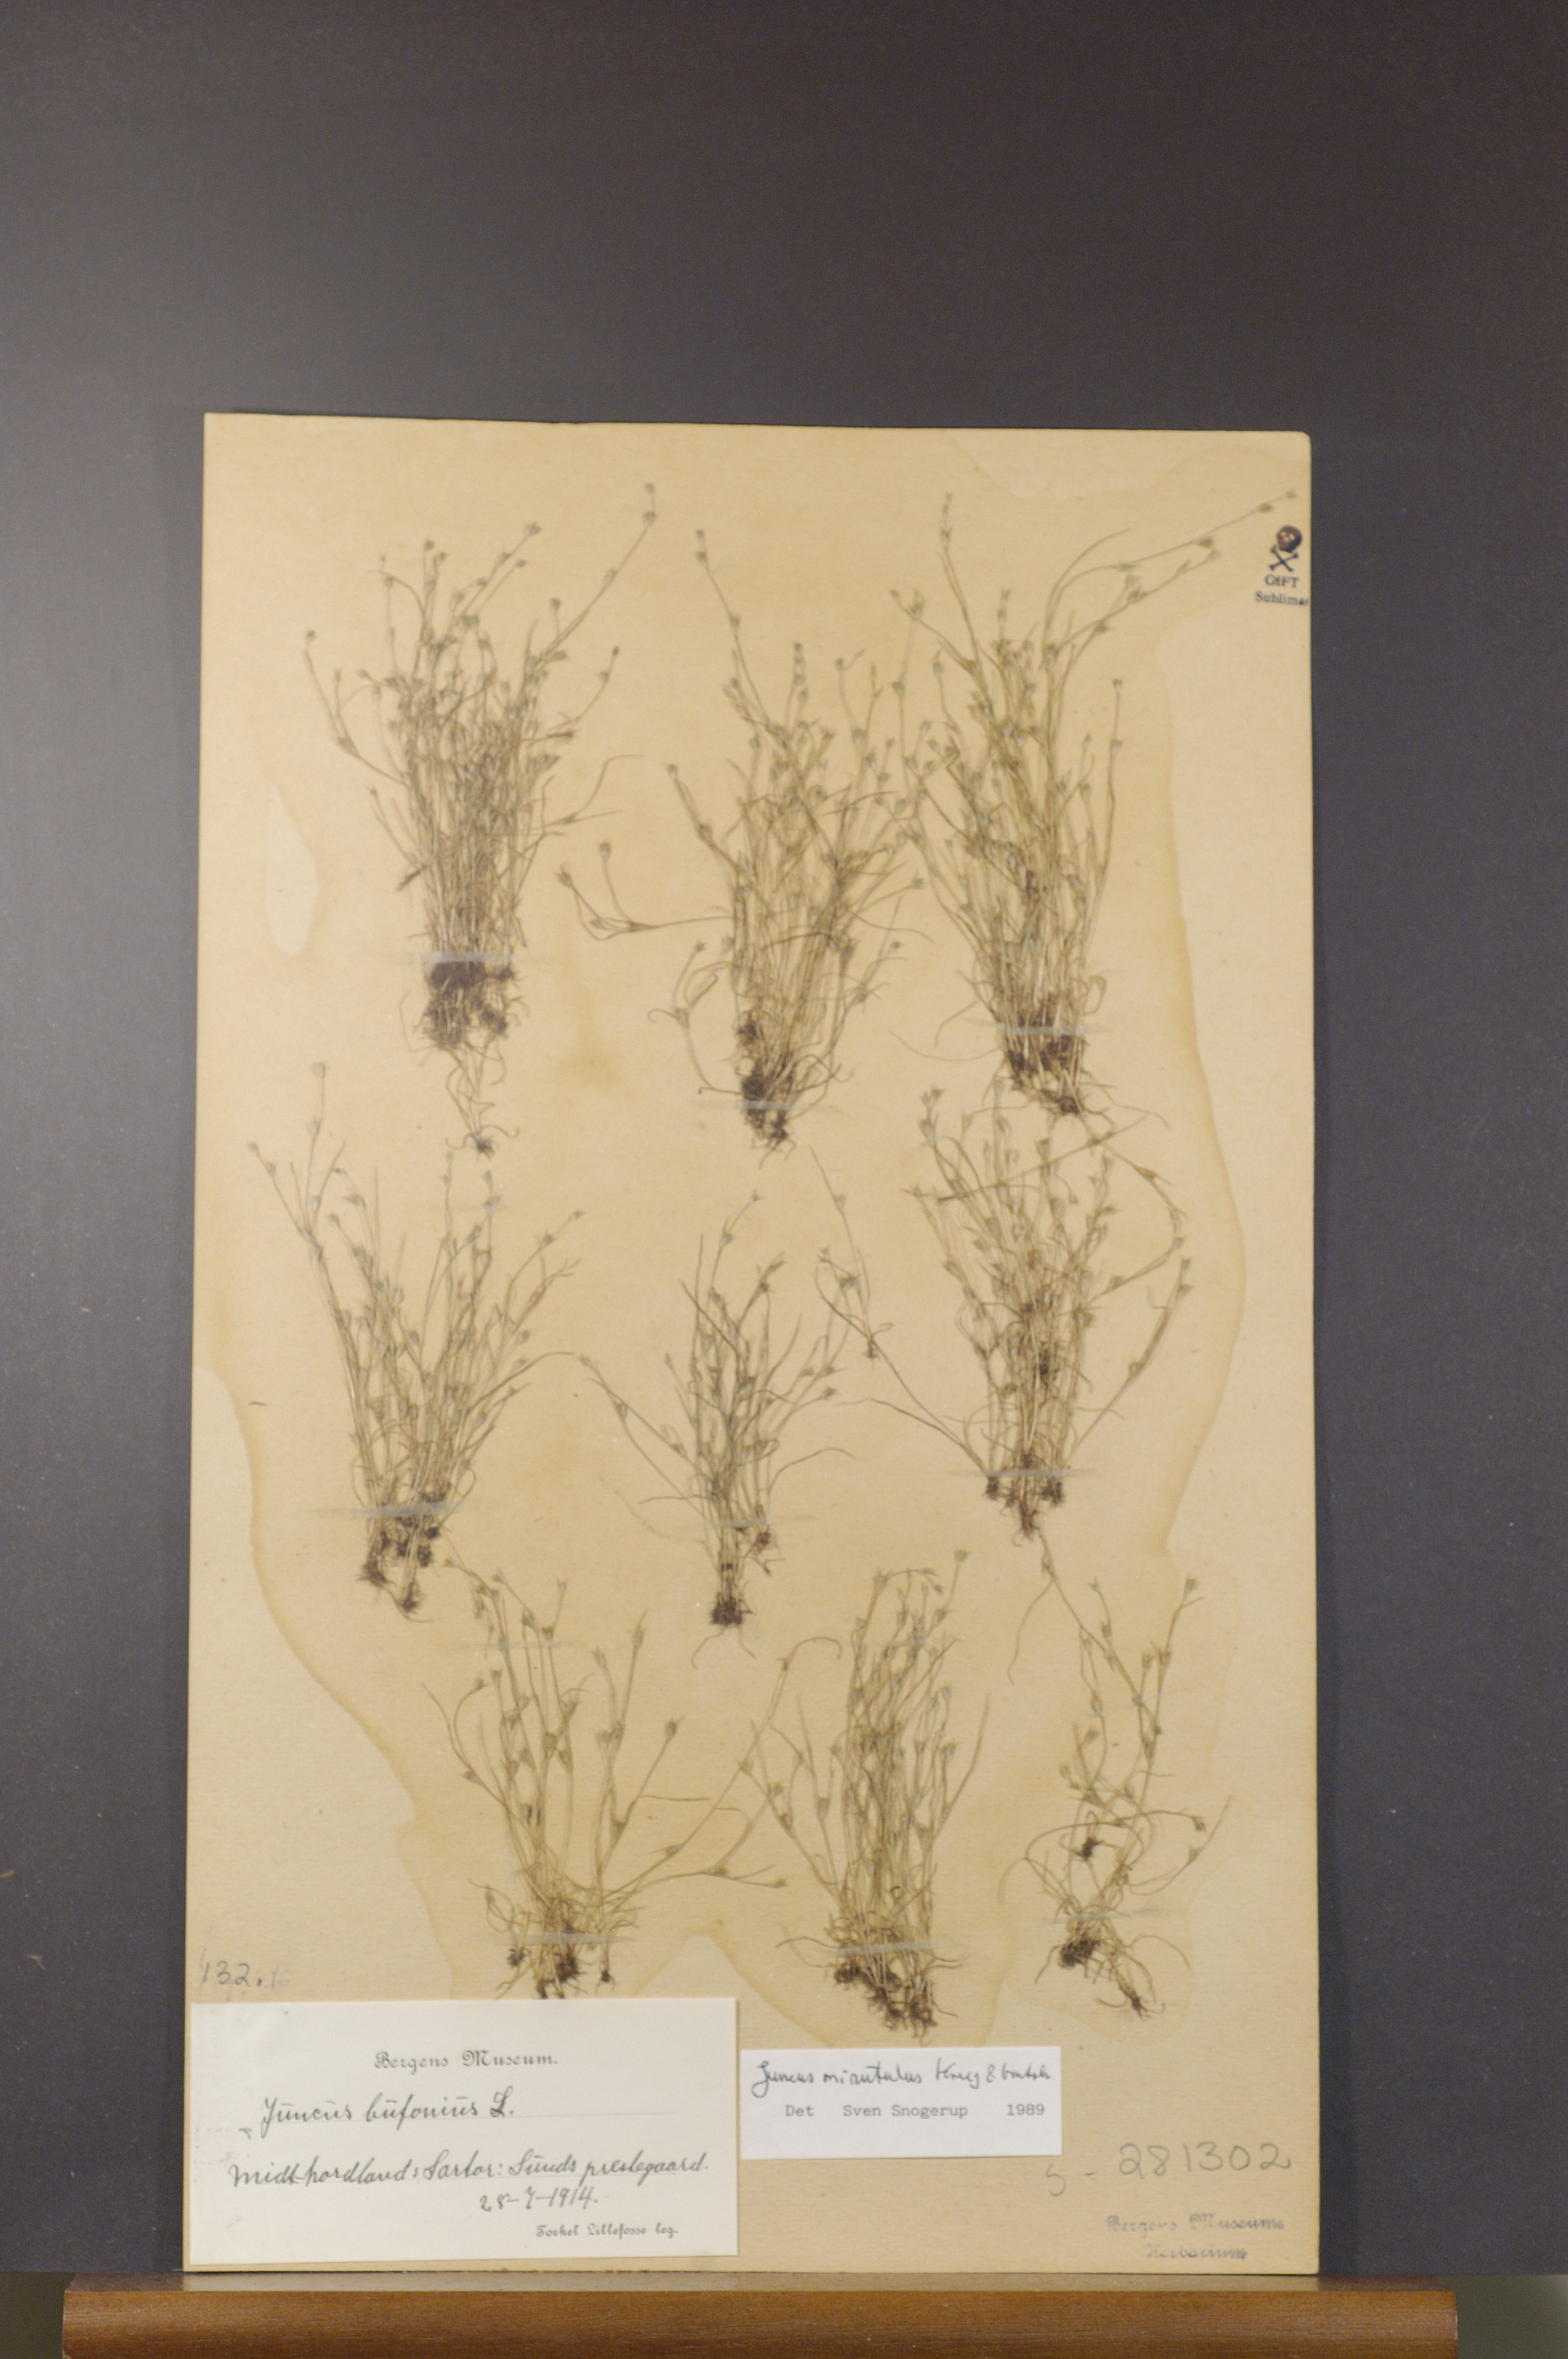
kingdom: Plantae
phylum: Tracheophyta
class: Liliopsida
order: Poales
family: Juncaceae
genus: Juncus
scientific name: Juncus minutulus
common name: Minute rush
